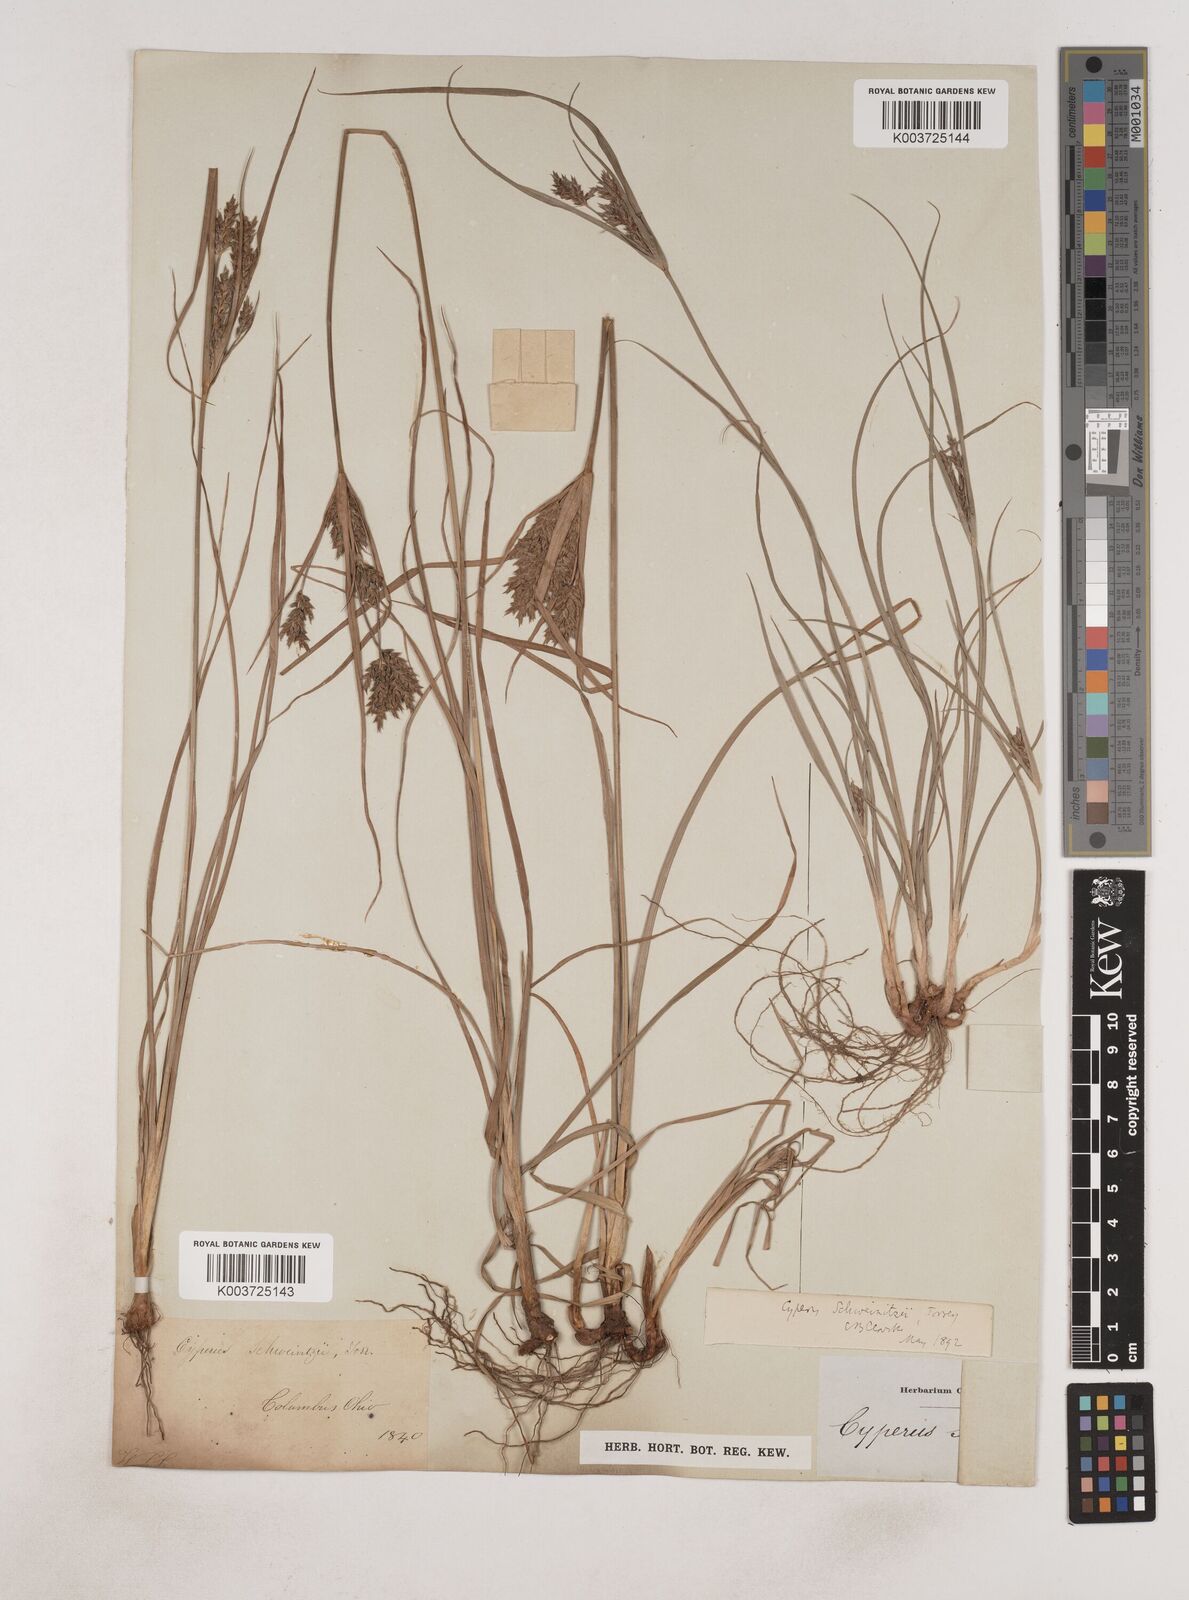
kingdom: Plantae
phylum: Tracheophyta
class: Liliopsida
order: Poales
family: Cyperaceae
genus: Cyperus
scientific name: Cyperus schweinitzii
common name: Schweinitz's cyperus
